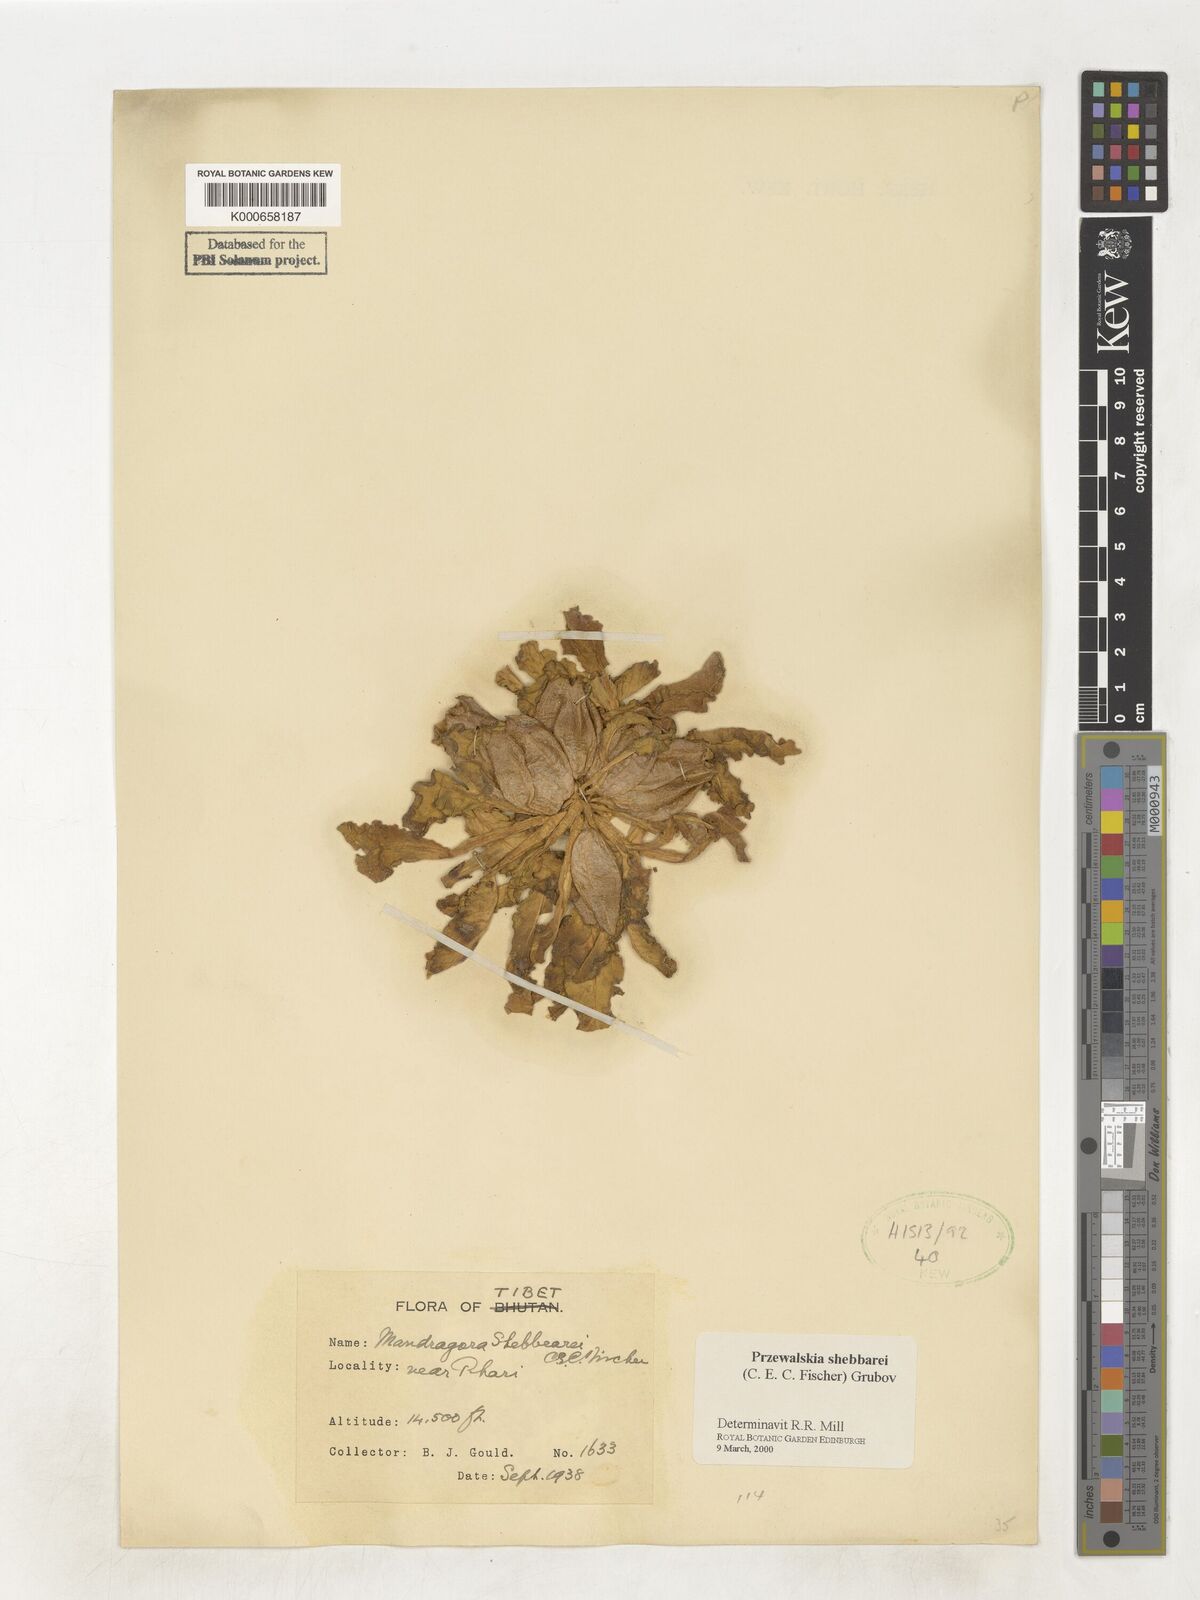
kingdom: Plantae
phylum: Tracheophyta
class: Magnoliopsida
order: Solanales
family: Solanaceae
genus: Przewalskia
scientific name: Przewalskia tangutica
